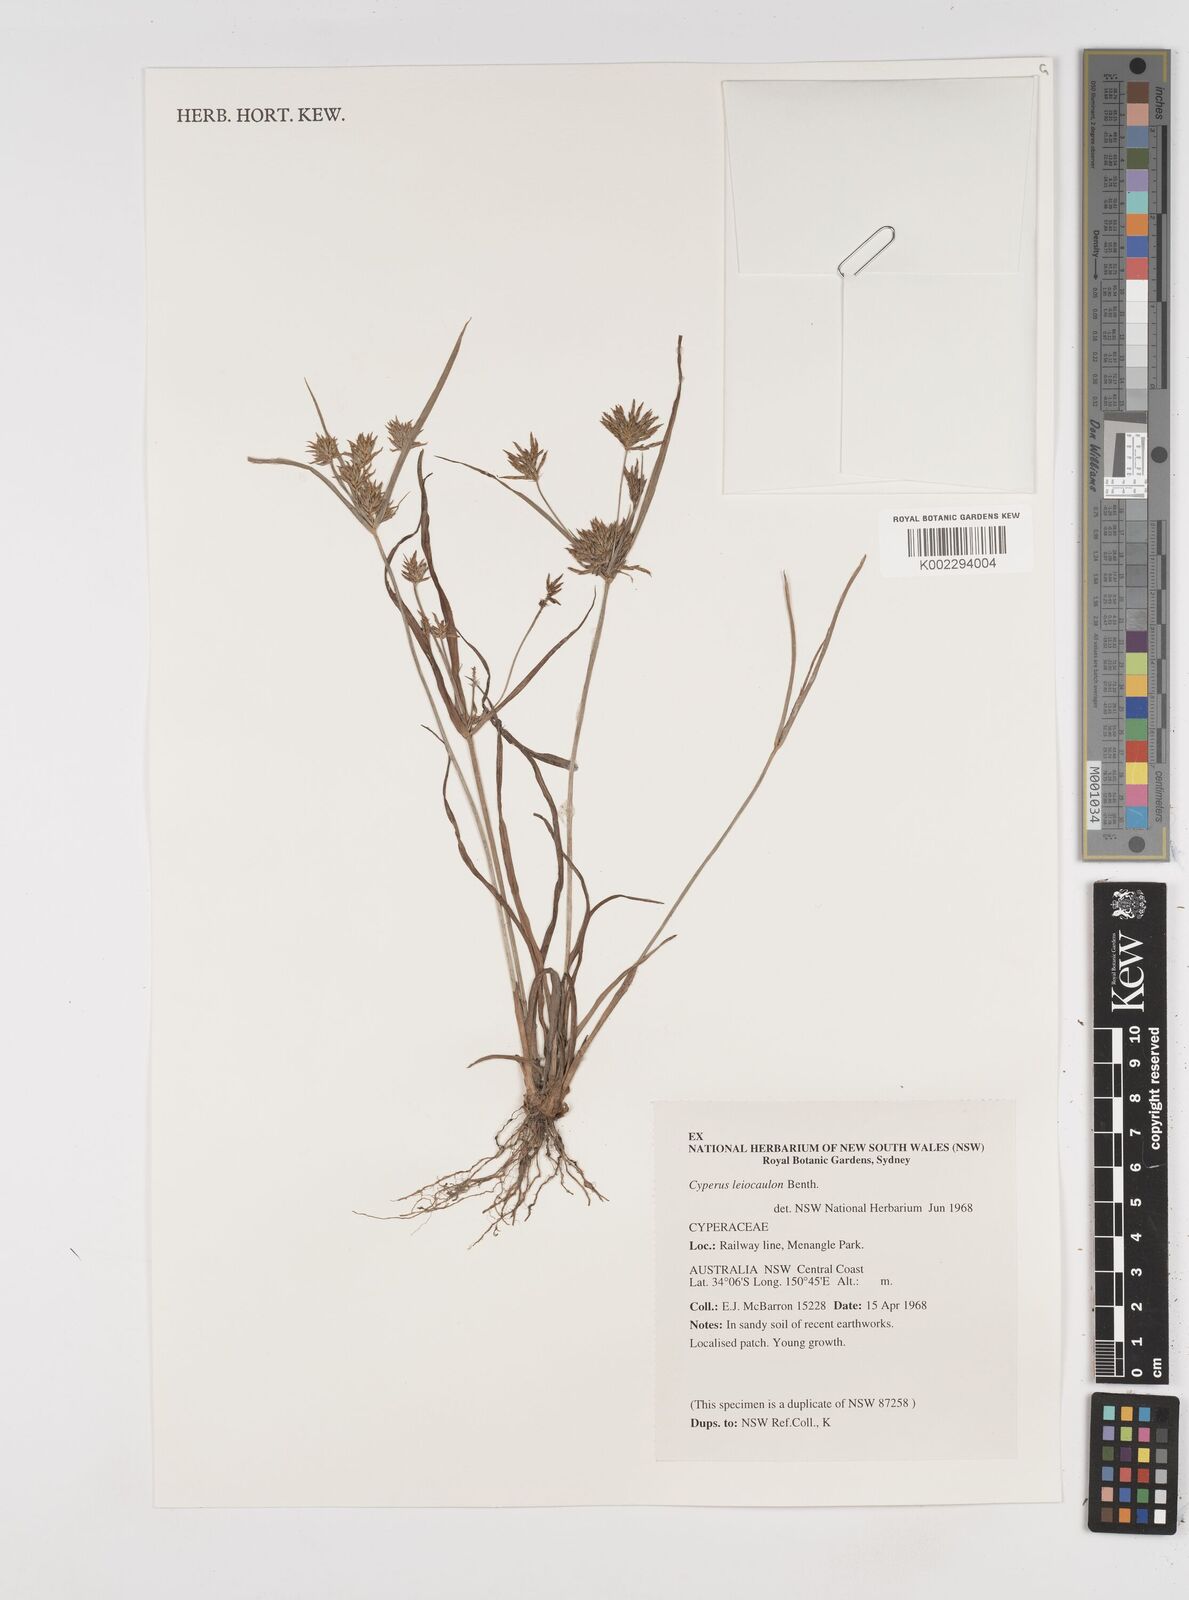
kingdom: Plantae
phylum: Tracheophyta
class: Liliopsida
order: Poales
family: Cyperaceae
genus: Cyperus
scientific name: Cyperus leiocaulon
